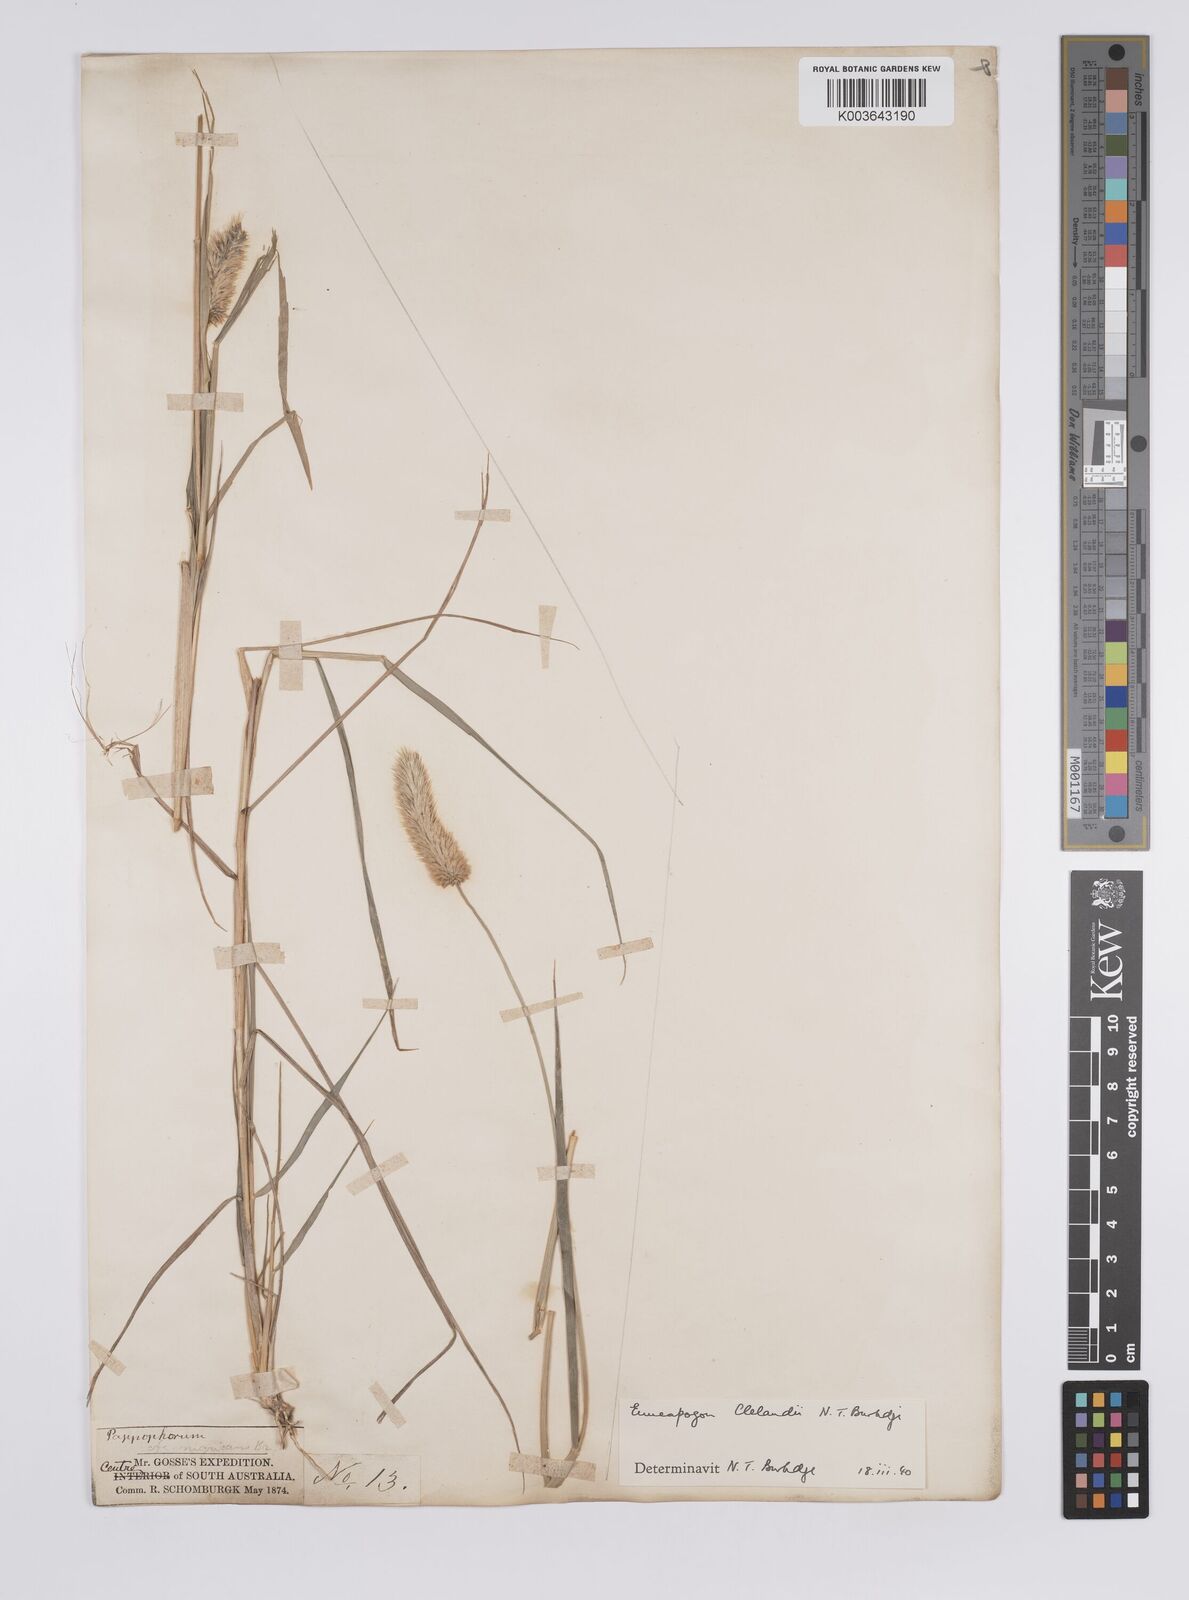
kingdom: Plantae
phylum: Tracheophyta
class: Liliopsida
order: Poales
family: Poaceae
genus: Enneapogon
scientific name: Enneapogon robustissimus
